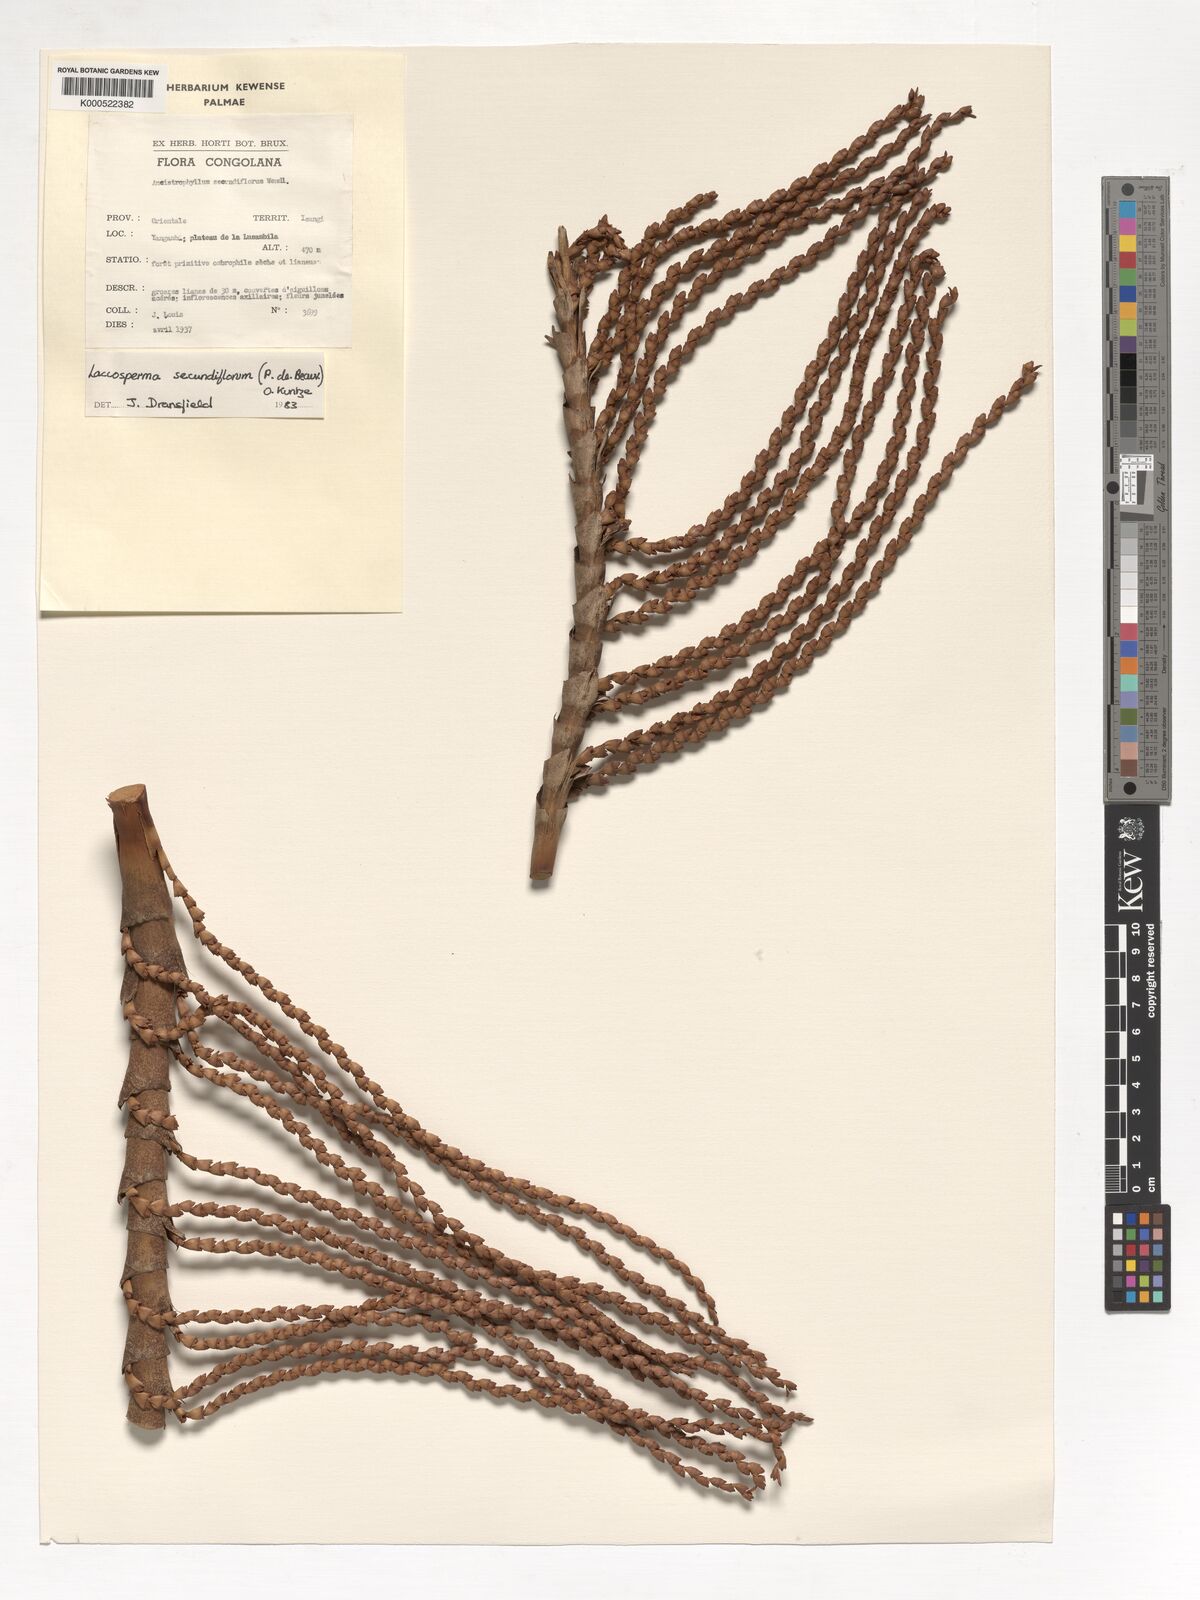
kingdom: Plantae
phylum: Tracheophyta
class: Liliopsida
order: Arecales
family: Arecaceae
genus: Laccosperma
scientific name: Laccosperma secundiflorum
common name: Rattan
